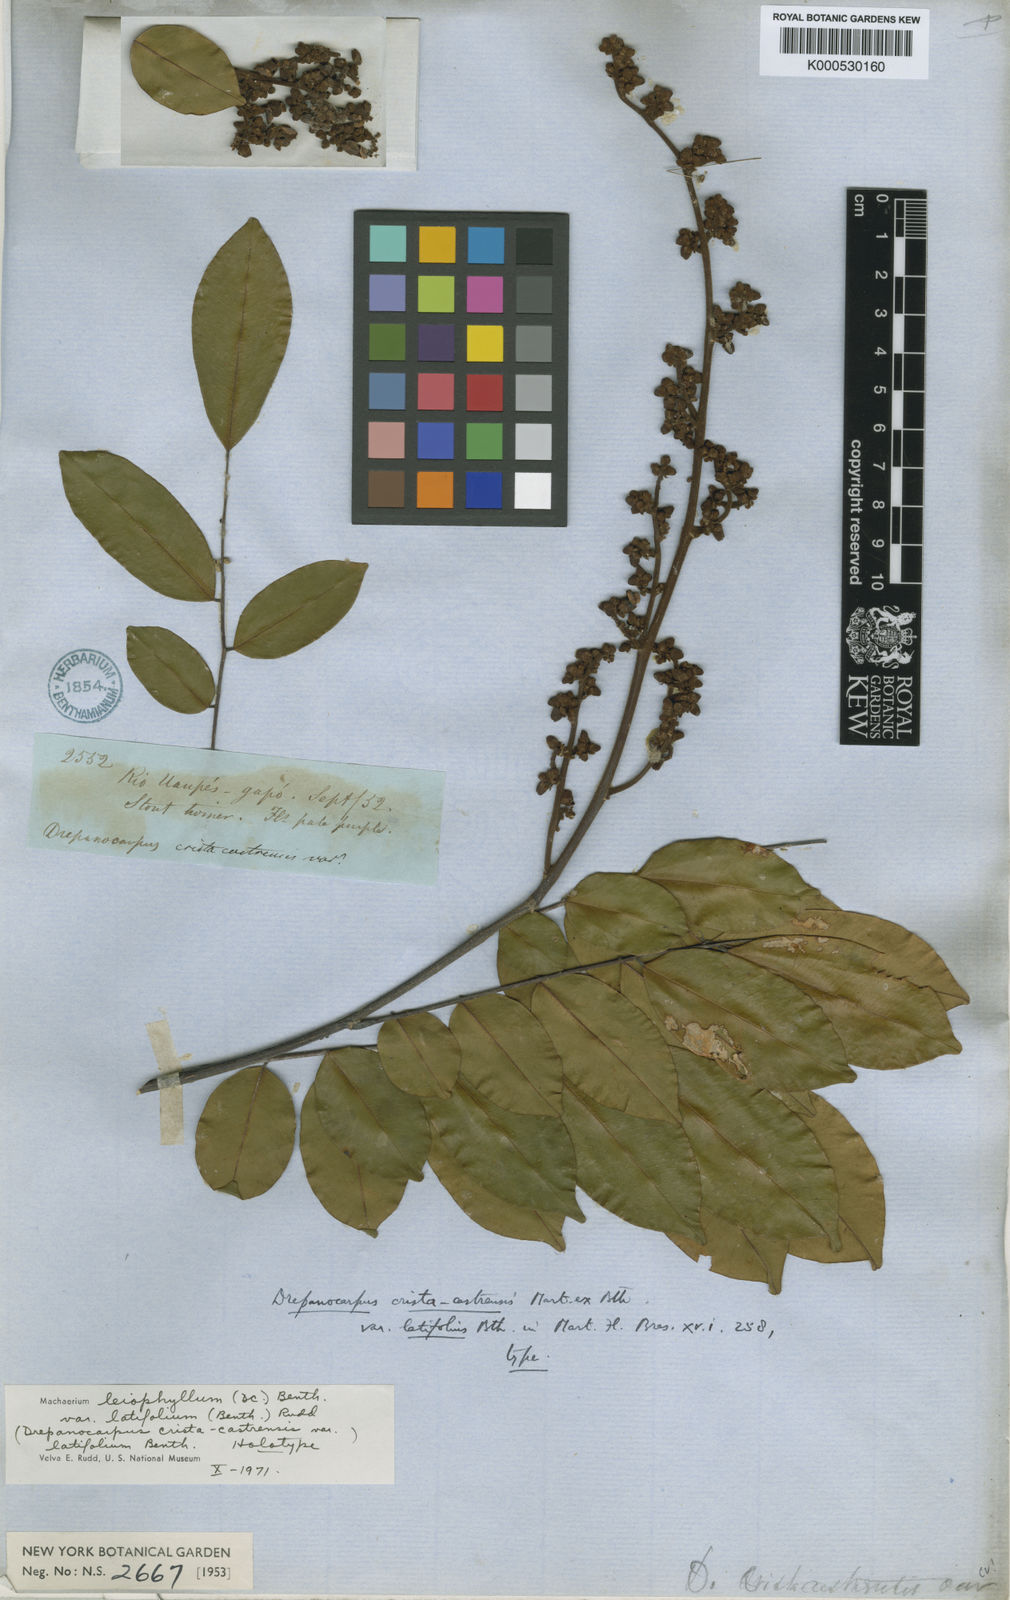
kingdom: Plantae
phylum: Tracheophyta
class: Magnoliopsida
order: Fabales
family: Fabaceae
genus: Machaerium
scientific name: Machaerium leiophyllum
